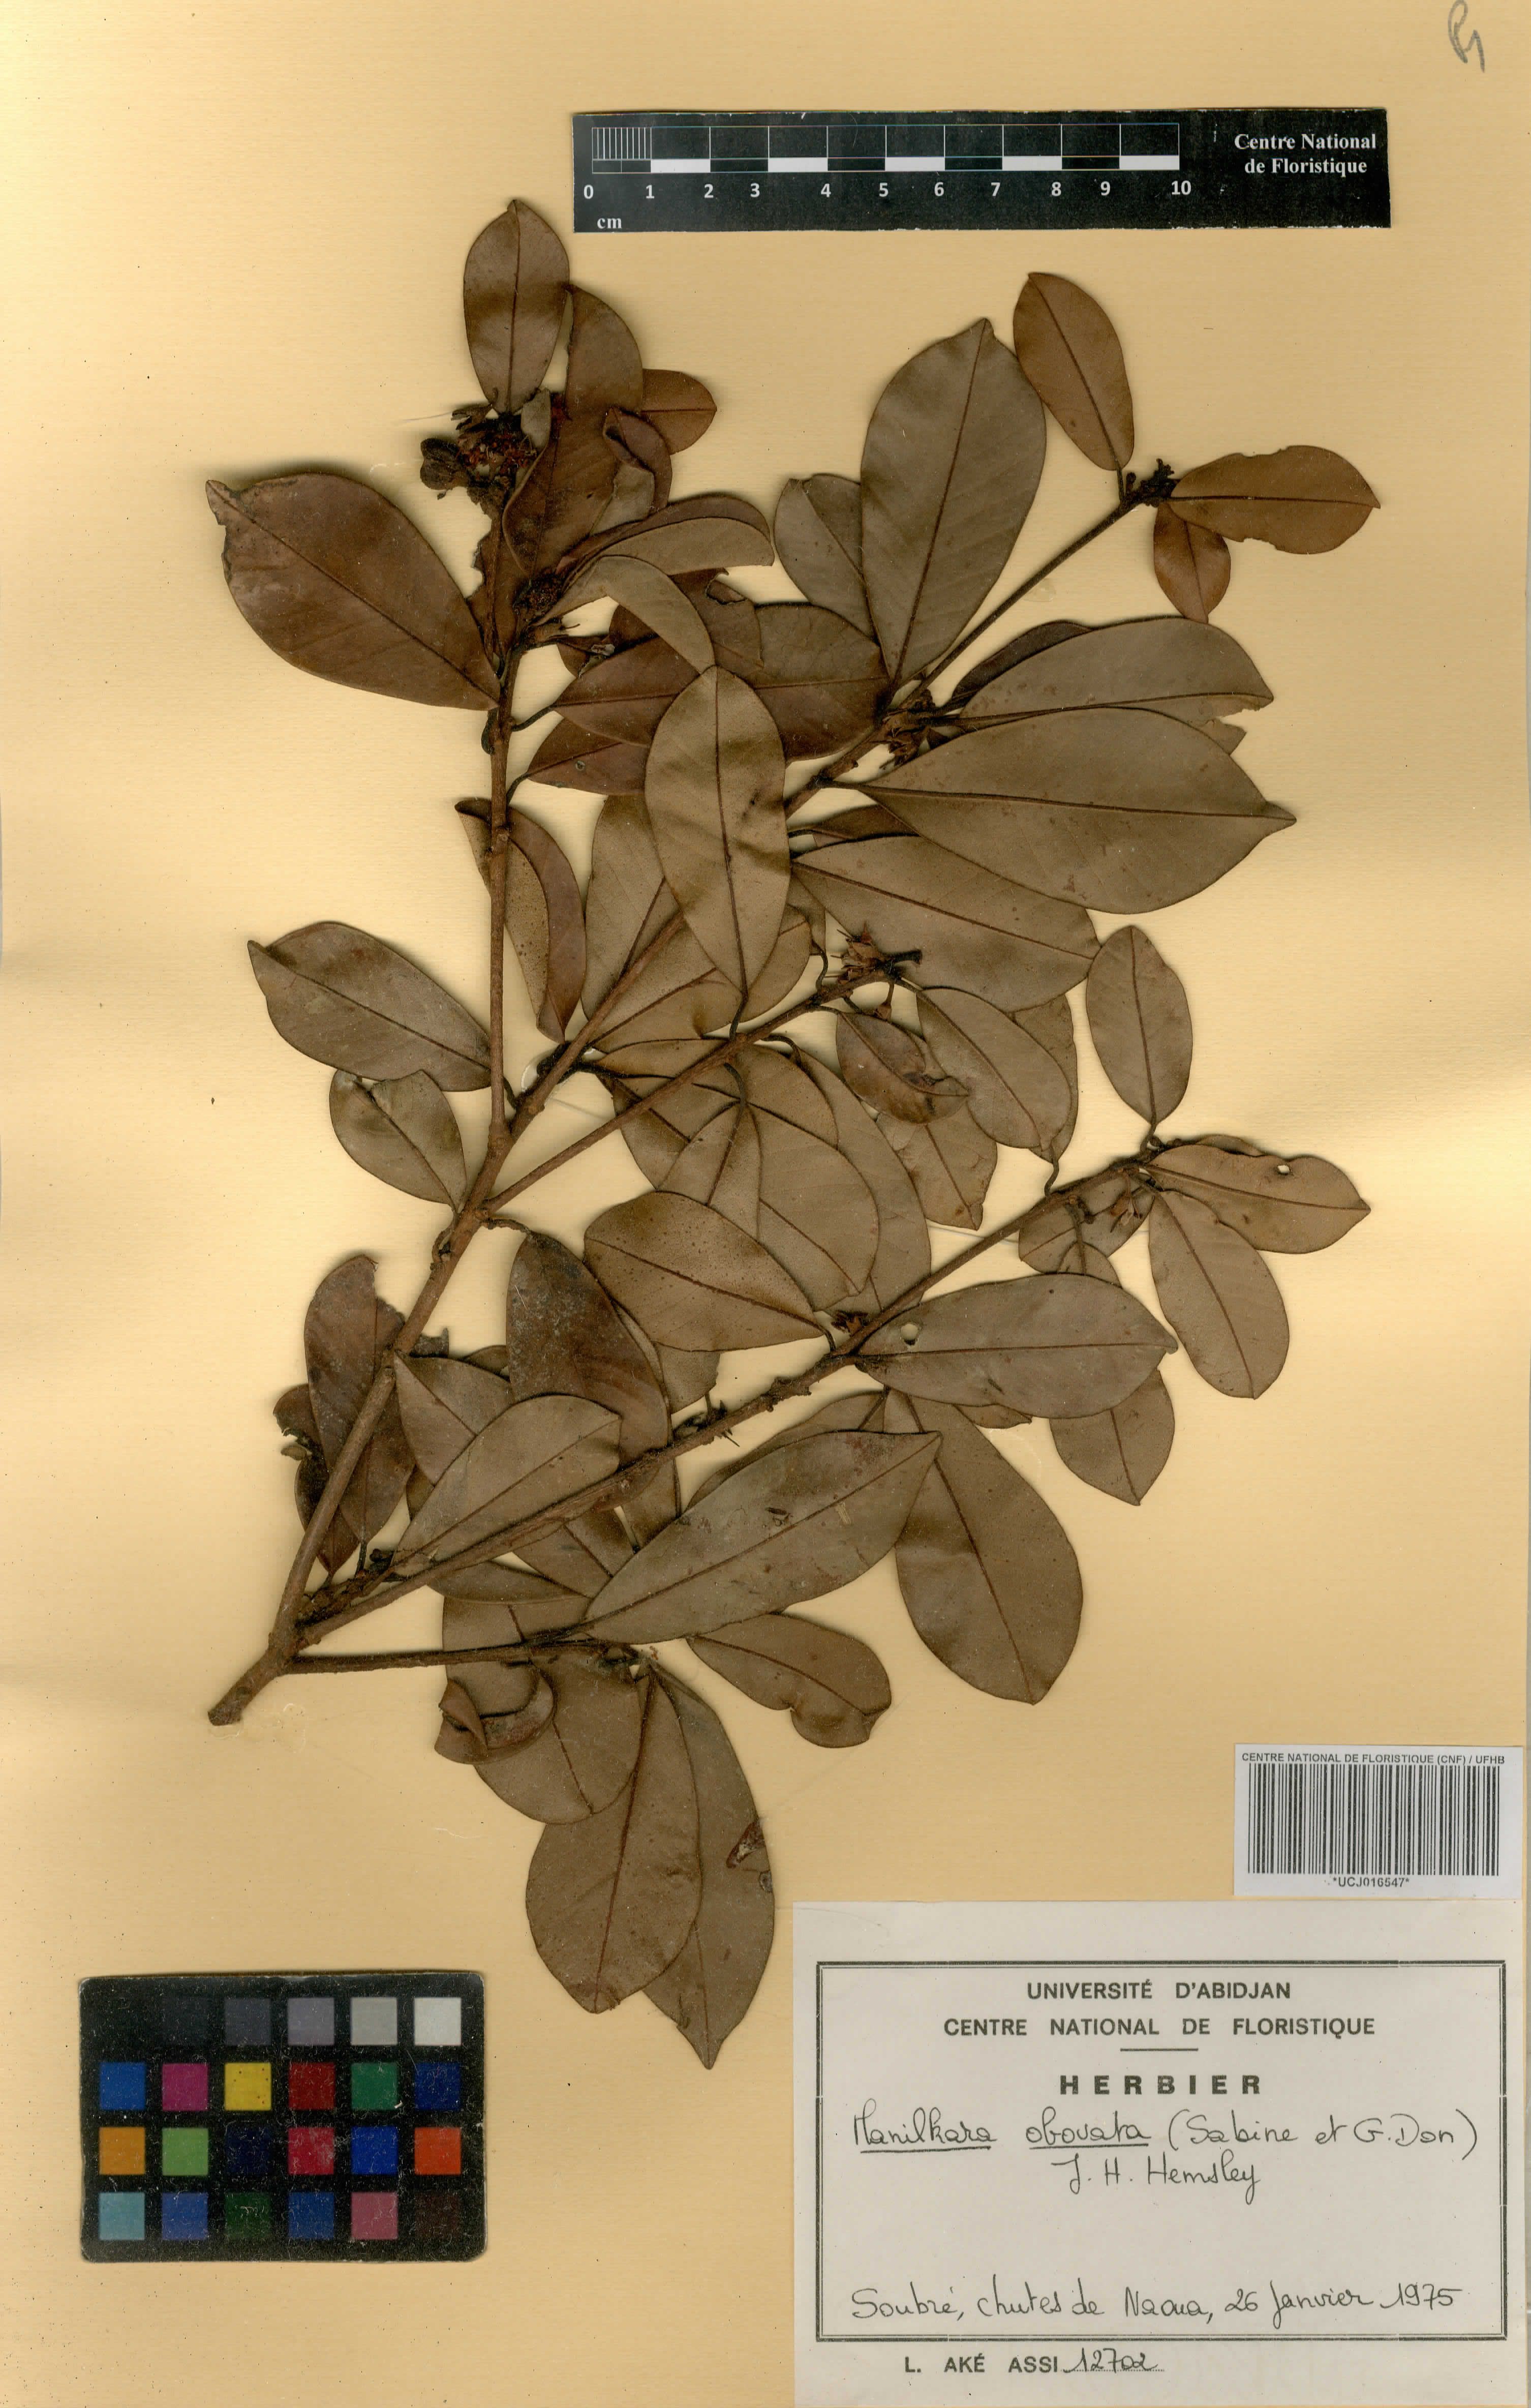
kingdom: Plantae
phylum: Tracheophyta
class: Magnoliopsida
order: Ericales
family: Sapotaceae
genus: Manilkara
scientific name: Manilkara obovata
